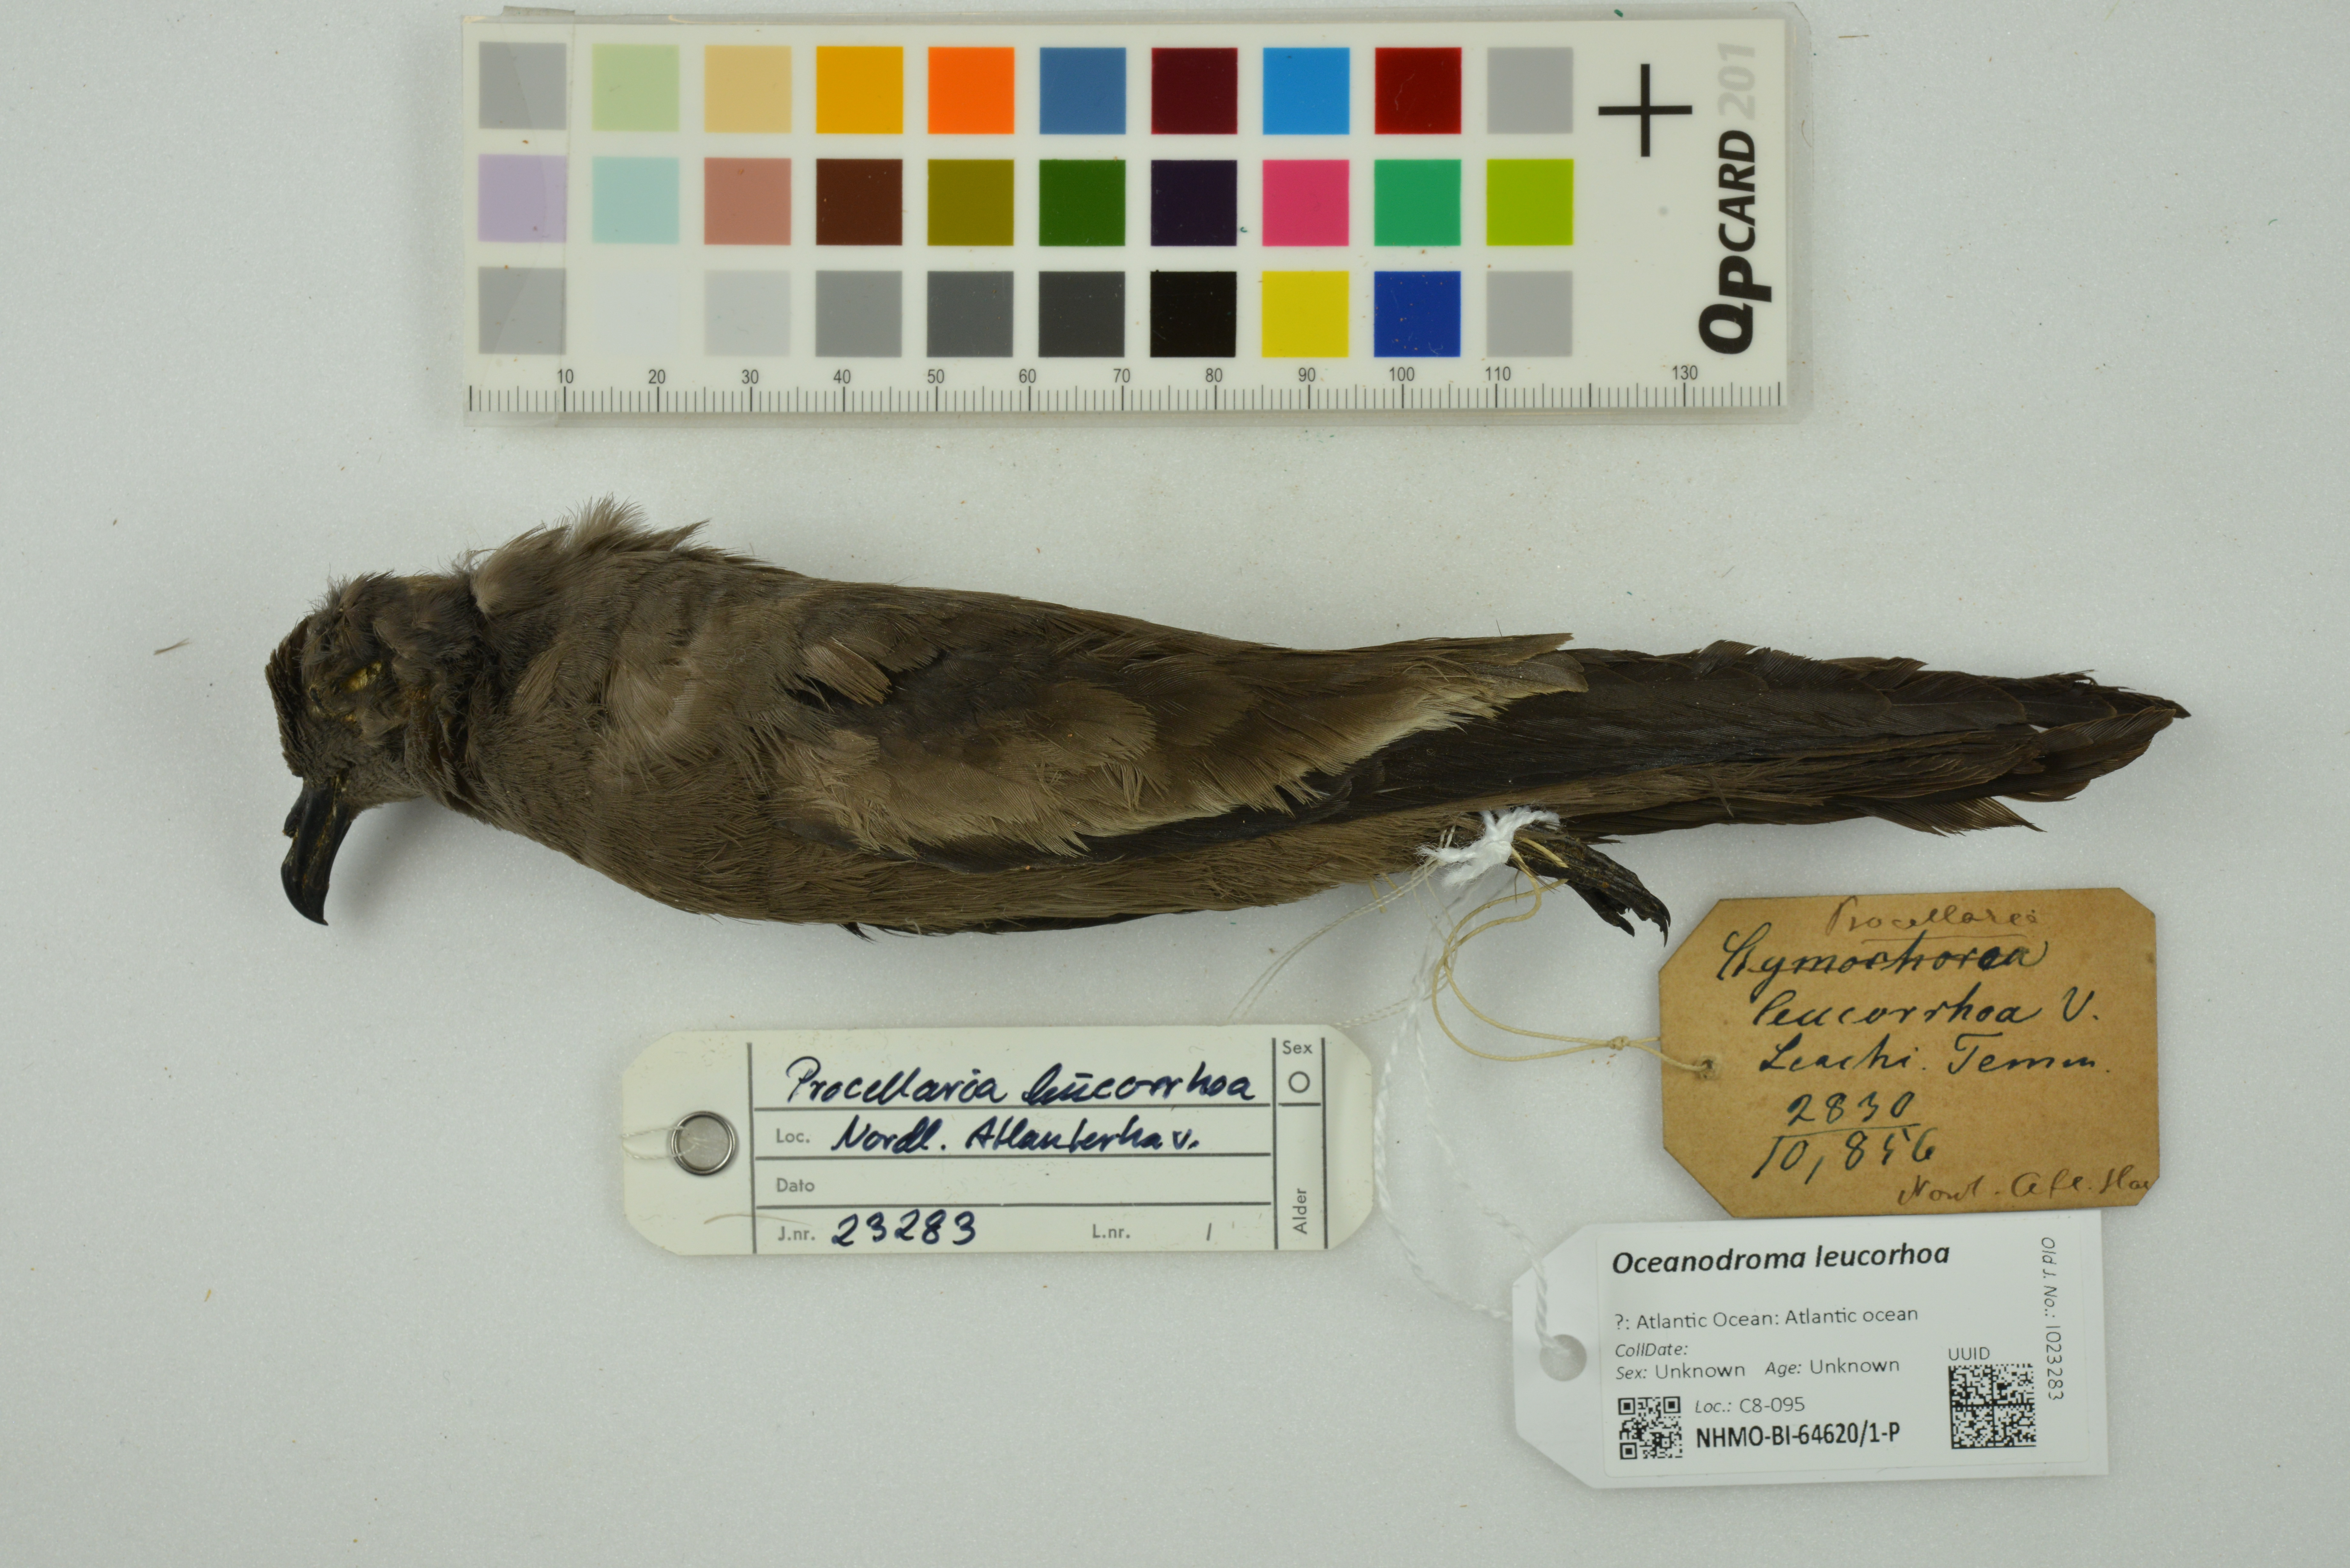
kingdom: Animalia
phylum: Chordata
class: Aves
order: Procellariiformes
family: Hydrobatidae
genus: Oceanodroma
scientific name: Oceanodroma leucorhoa
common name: Leach's storm-petrel
